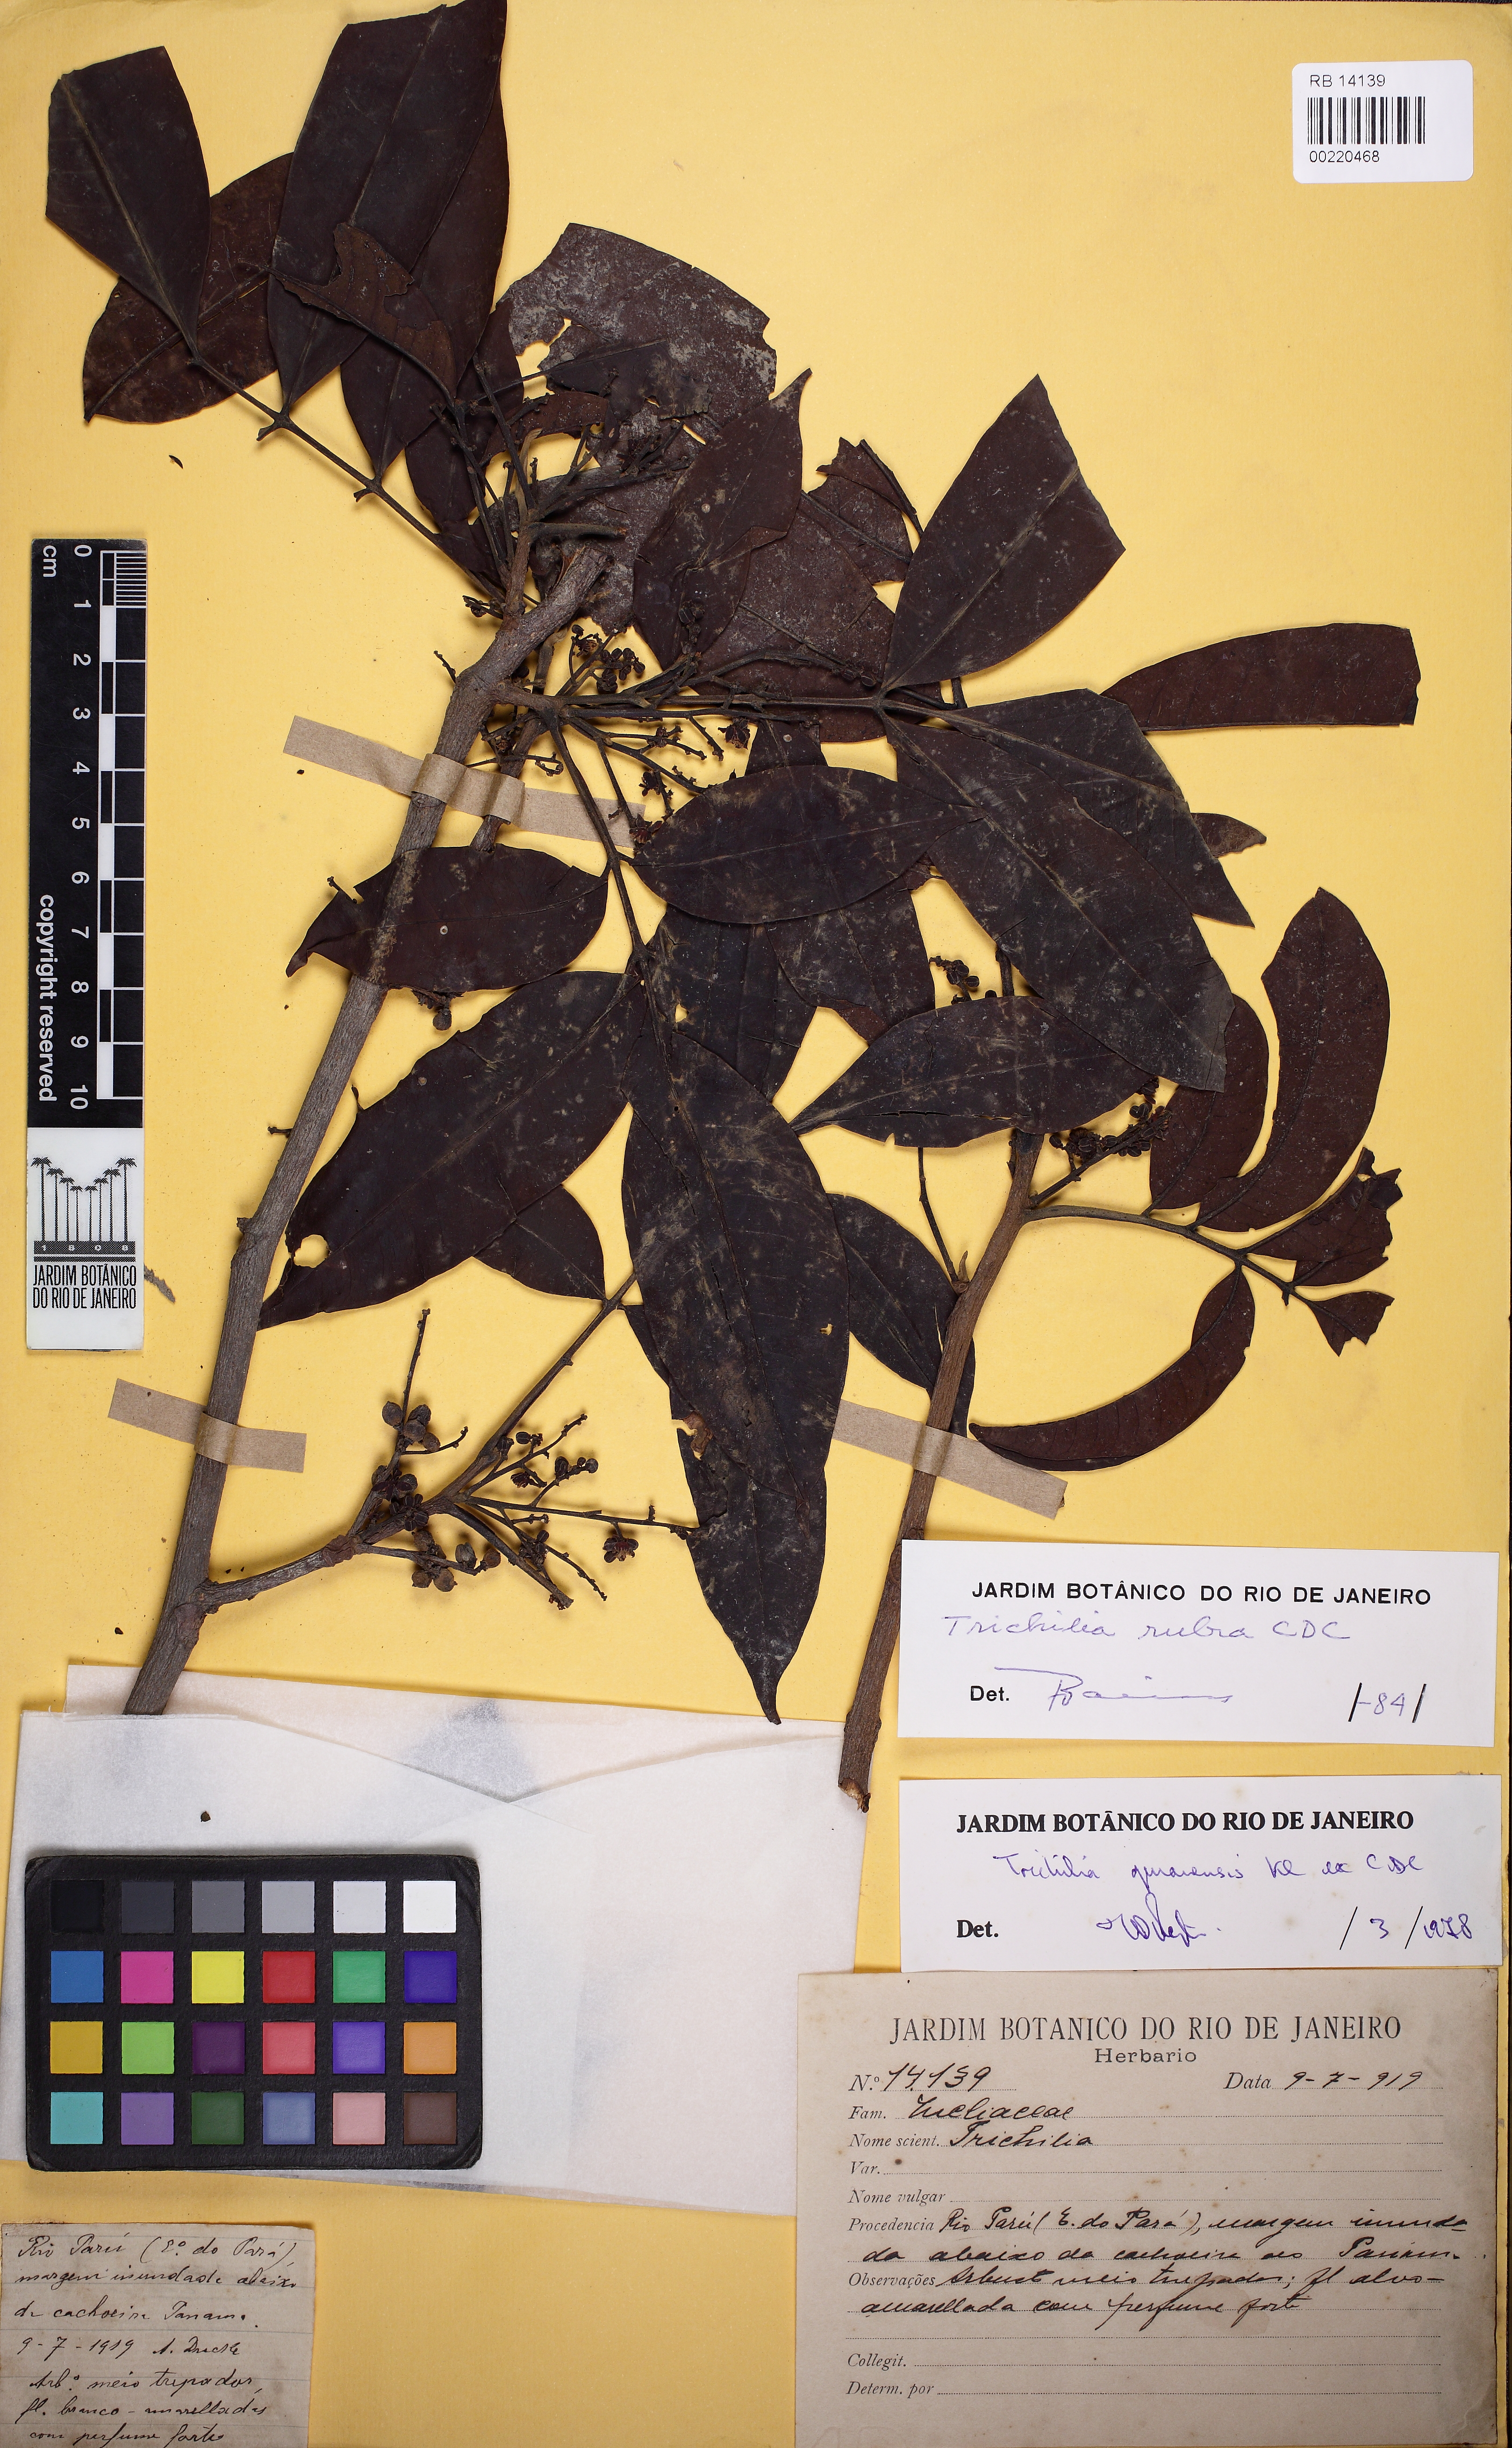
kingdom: Plantae
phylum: Tracheophyta
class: Magnoliopsida
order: Sapindales
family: Meliaceae
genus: Trichilia
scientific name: Trichilia rubra
